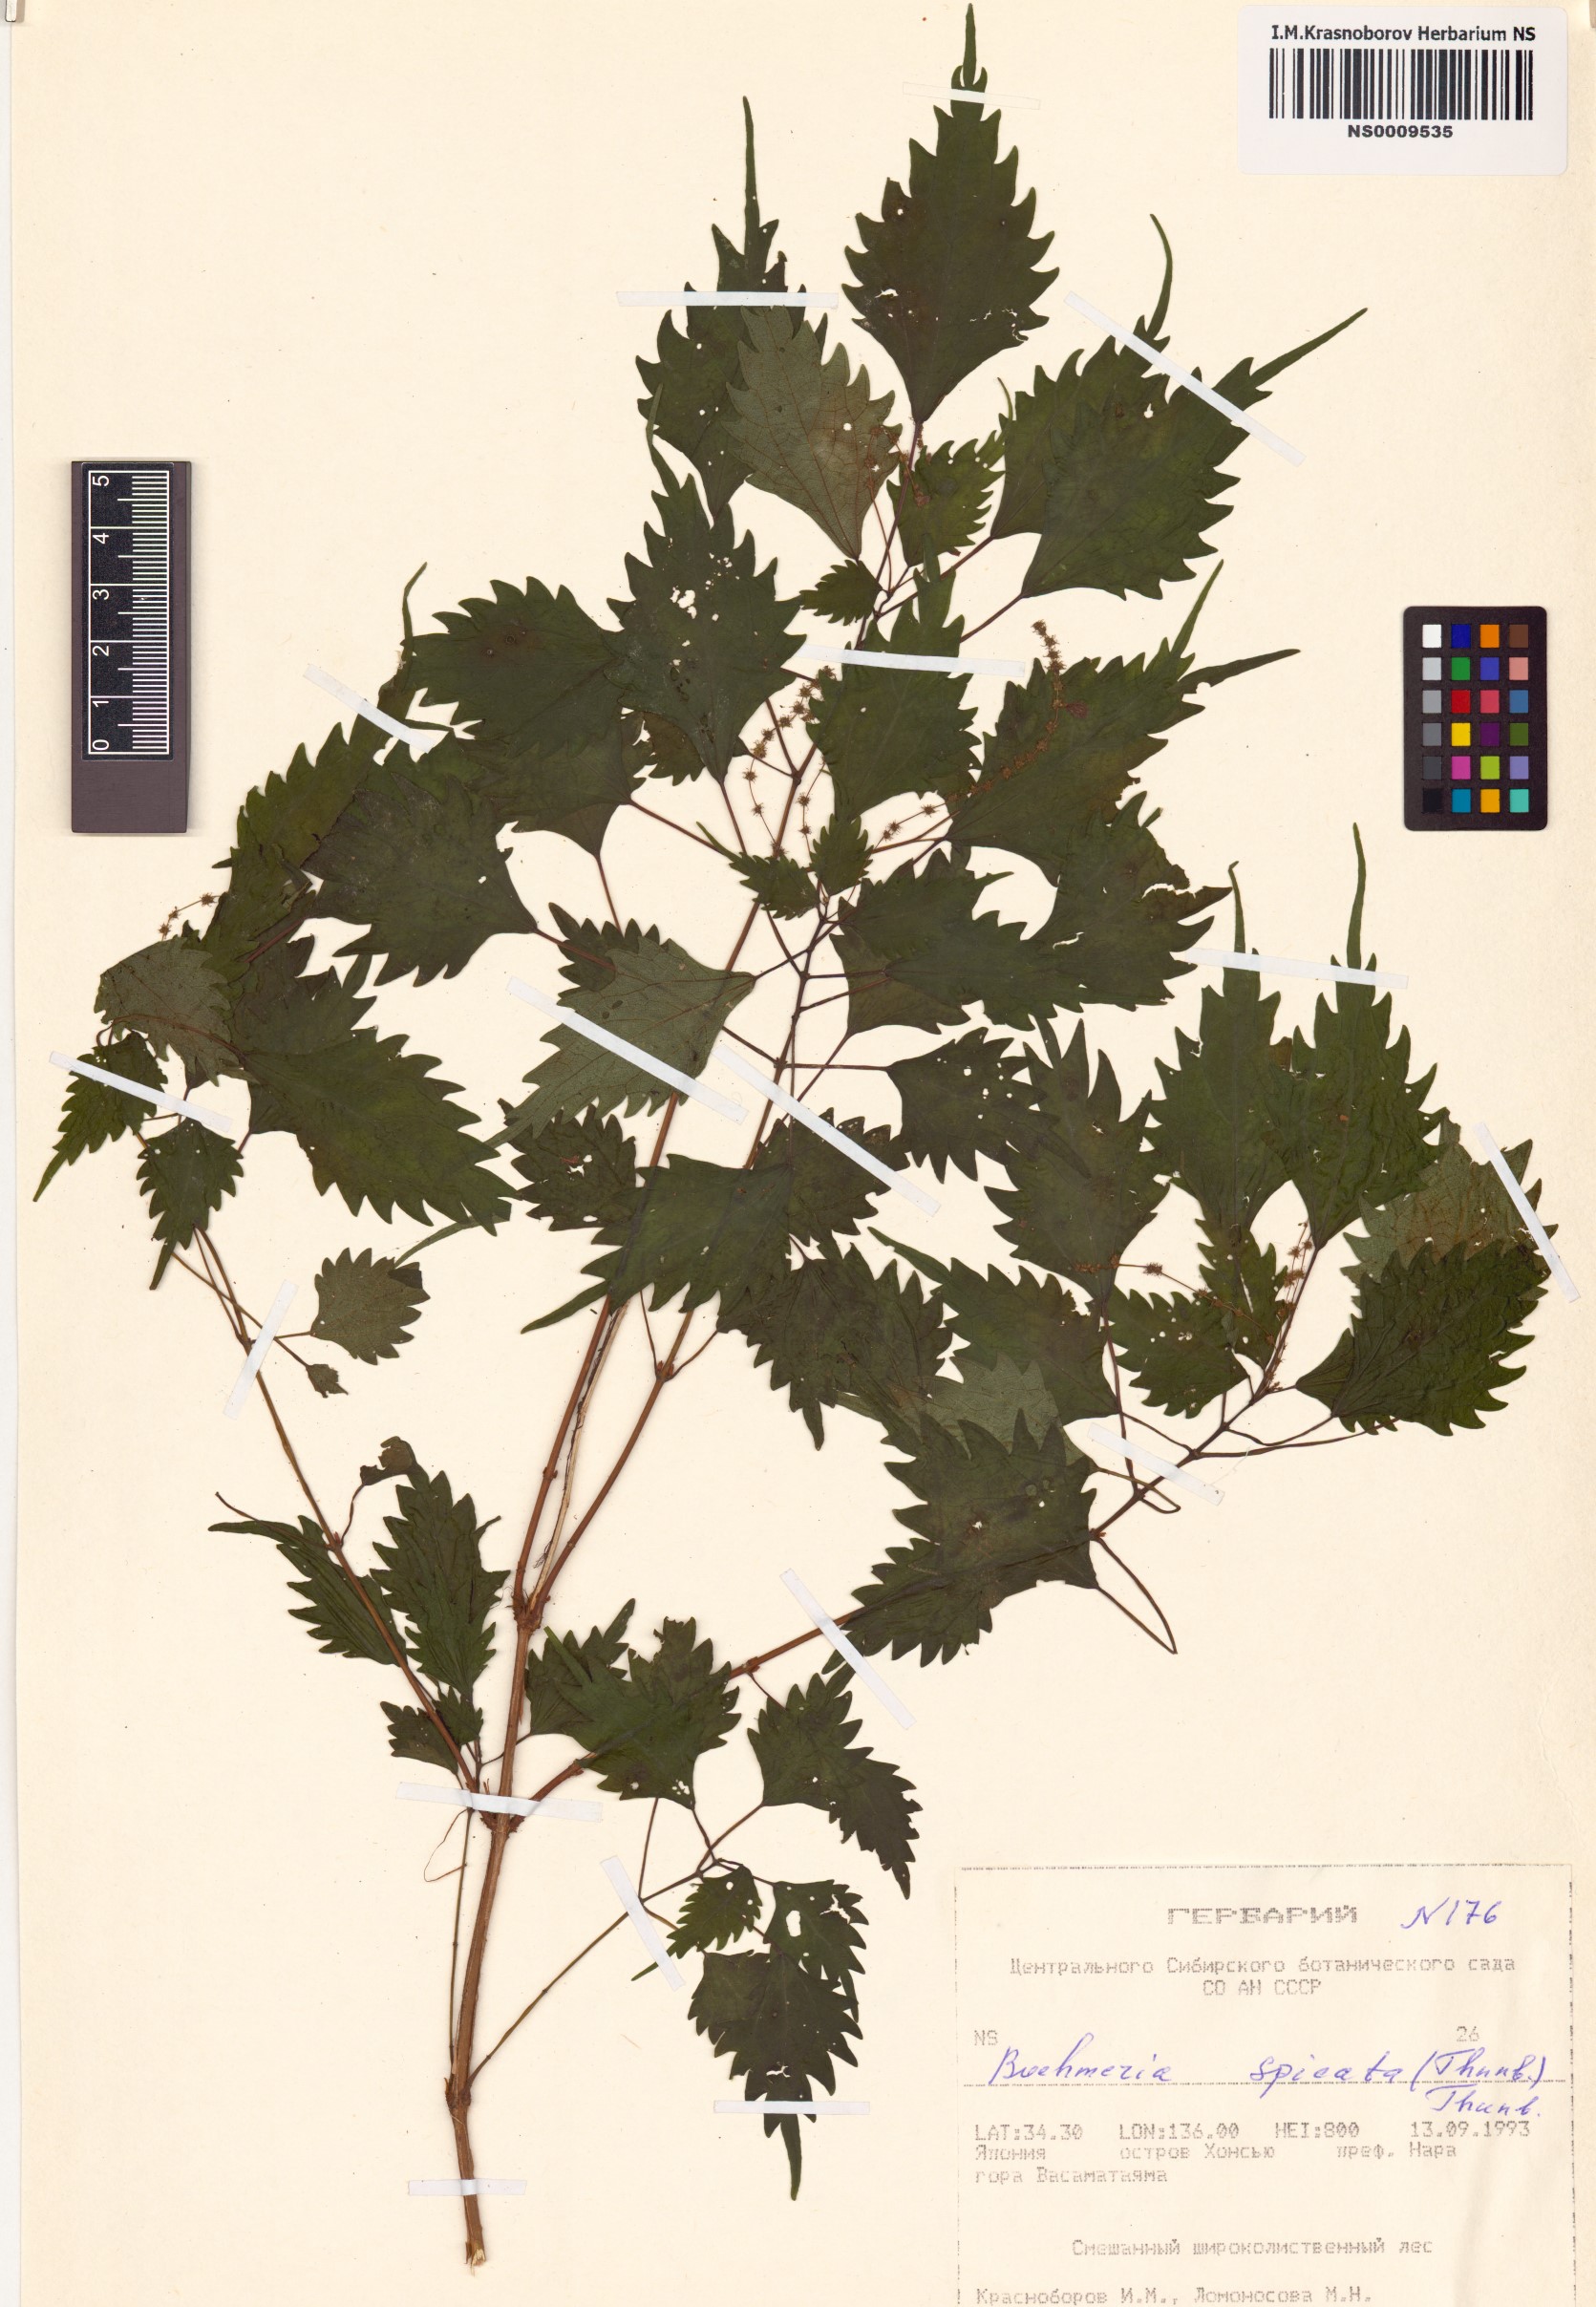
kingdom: Plantae
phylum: Tracheophyta
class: Magnoliopsida
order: Rosales
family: Urticaceae
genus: Boehmeria
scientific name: Boehmeria japonica
